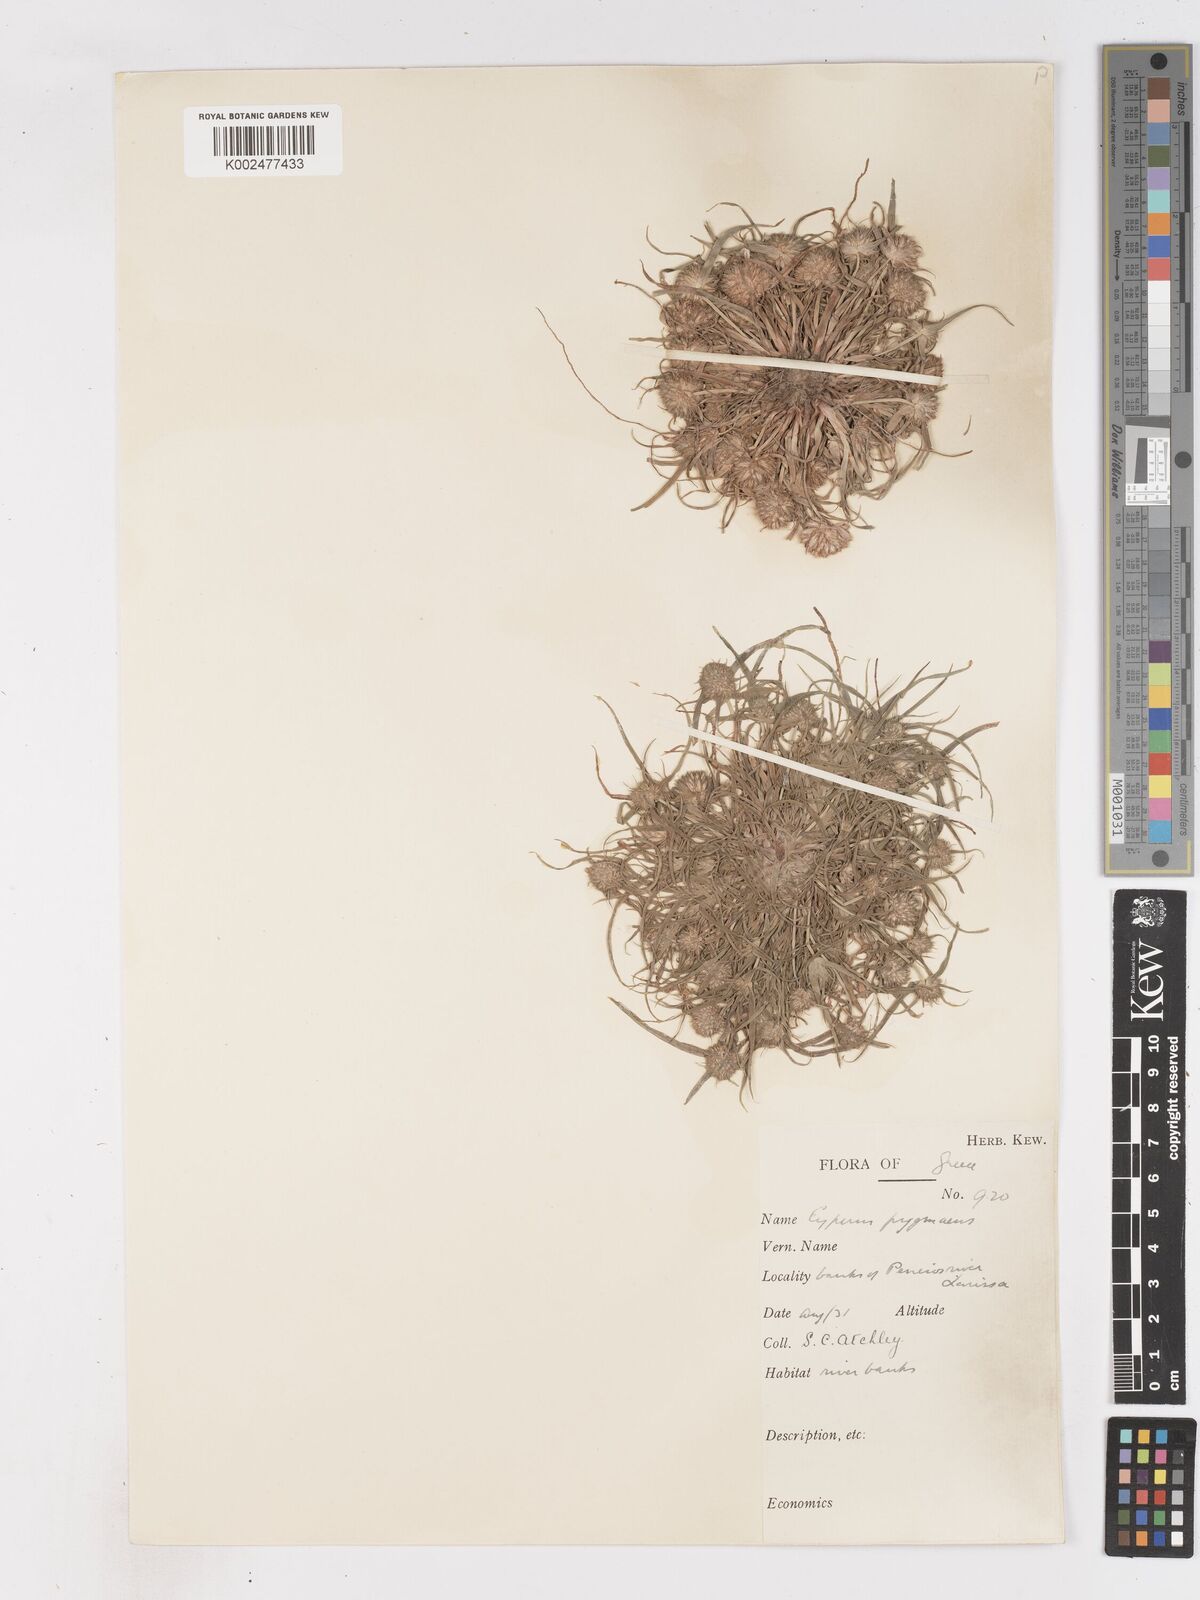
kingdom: Plantae
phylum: Tracheophyta
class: Liliopsida
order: Poales
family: Cyperaceae
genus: Cyperus
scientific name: Cyperus michelianus
